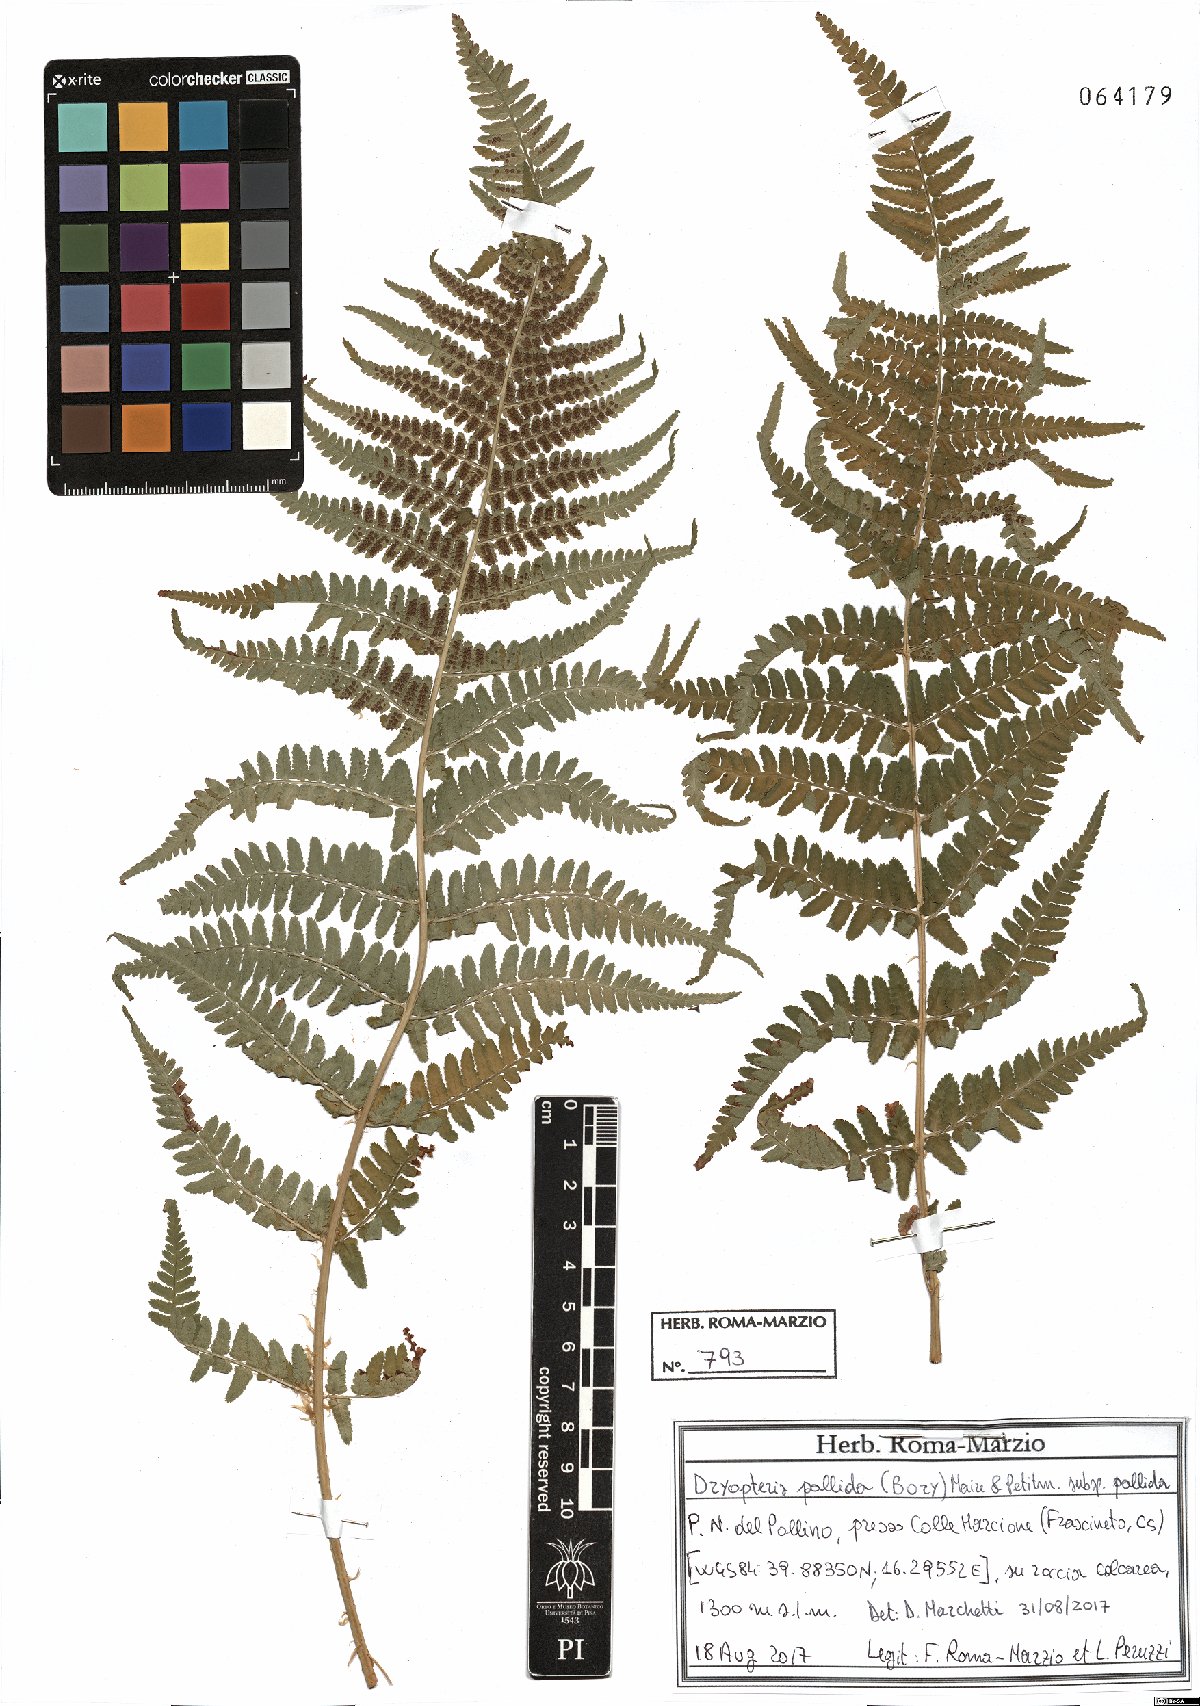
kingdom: Plantae
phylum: Tracheophyta
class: Polypodiopsida
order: Polypodiales
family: Dryopteridaceae
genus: Dryopteris
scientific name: Dryopteris pallida
